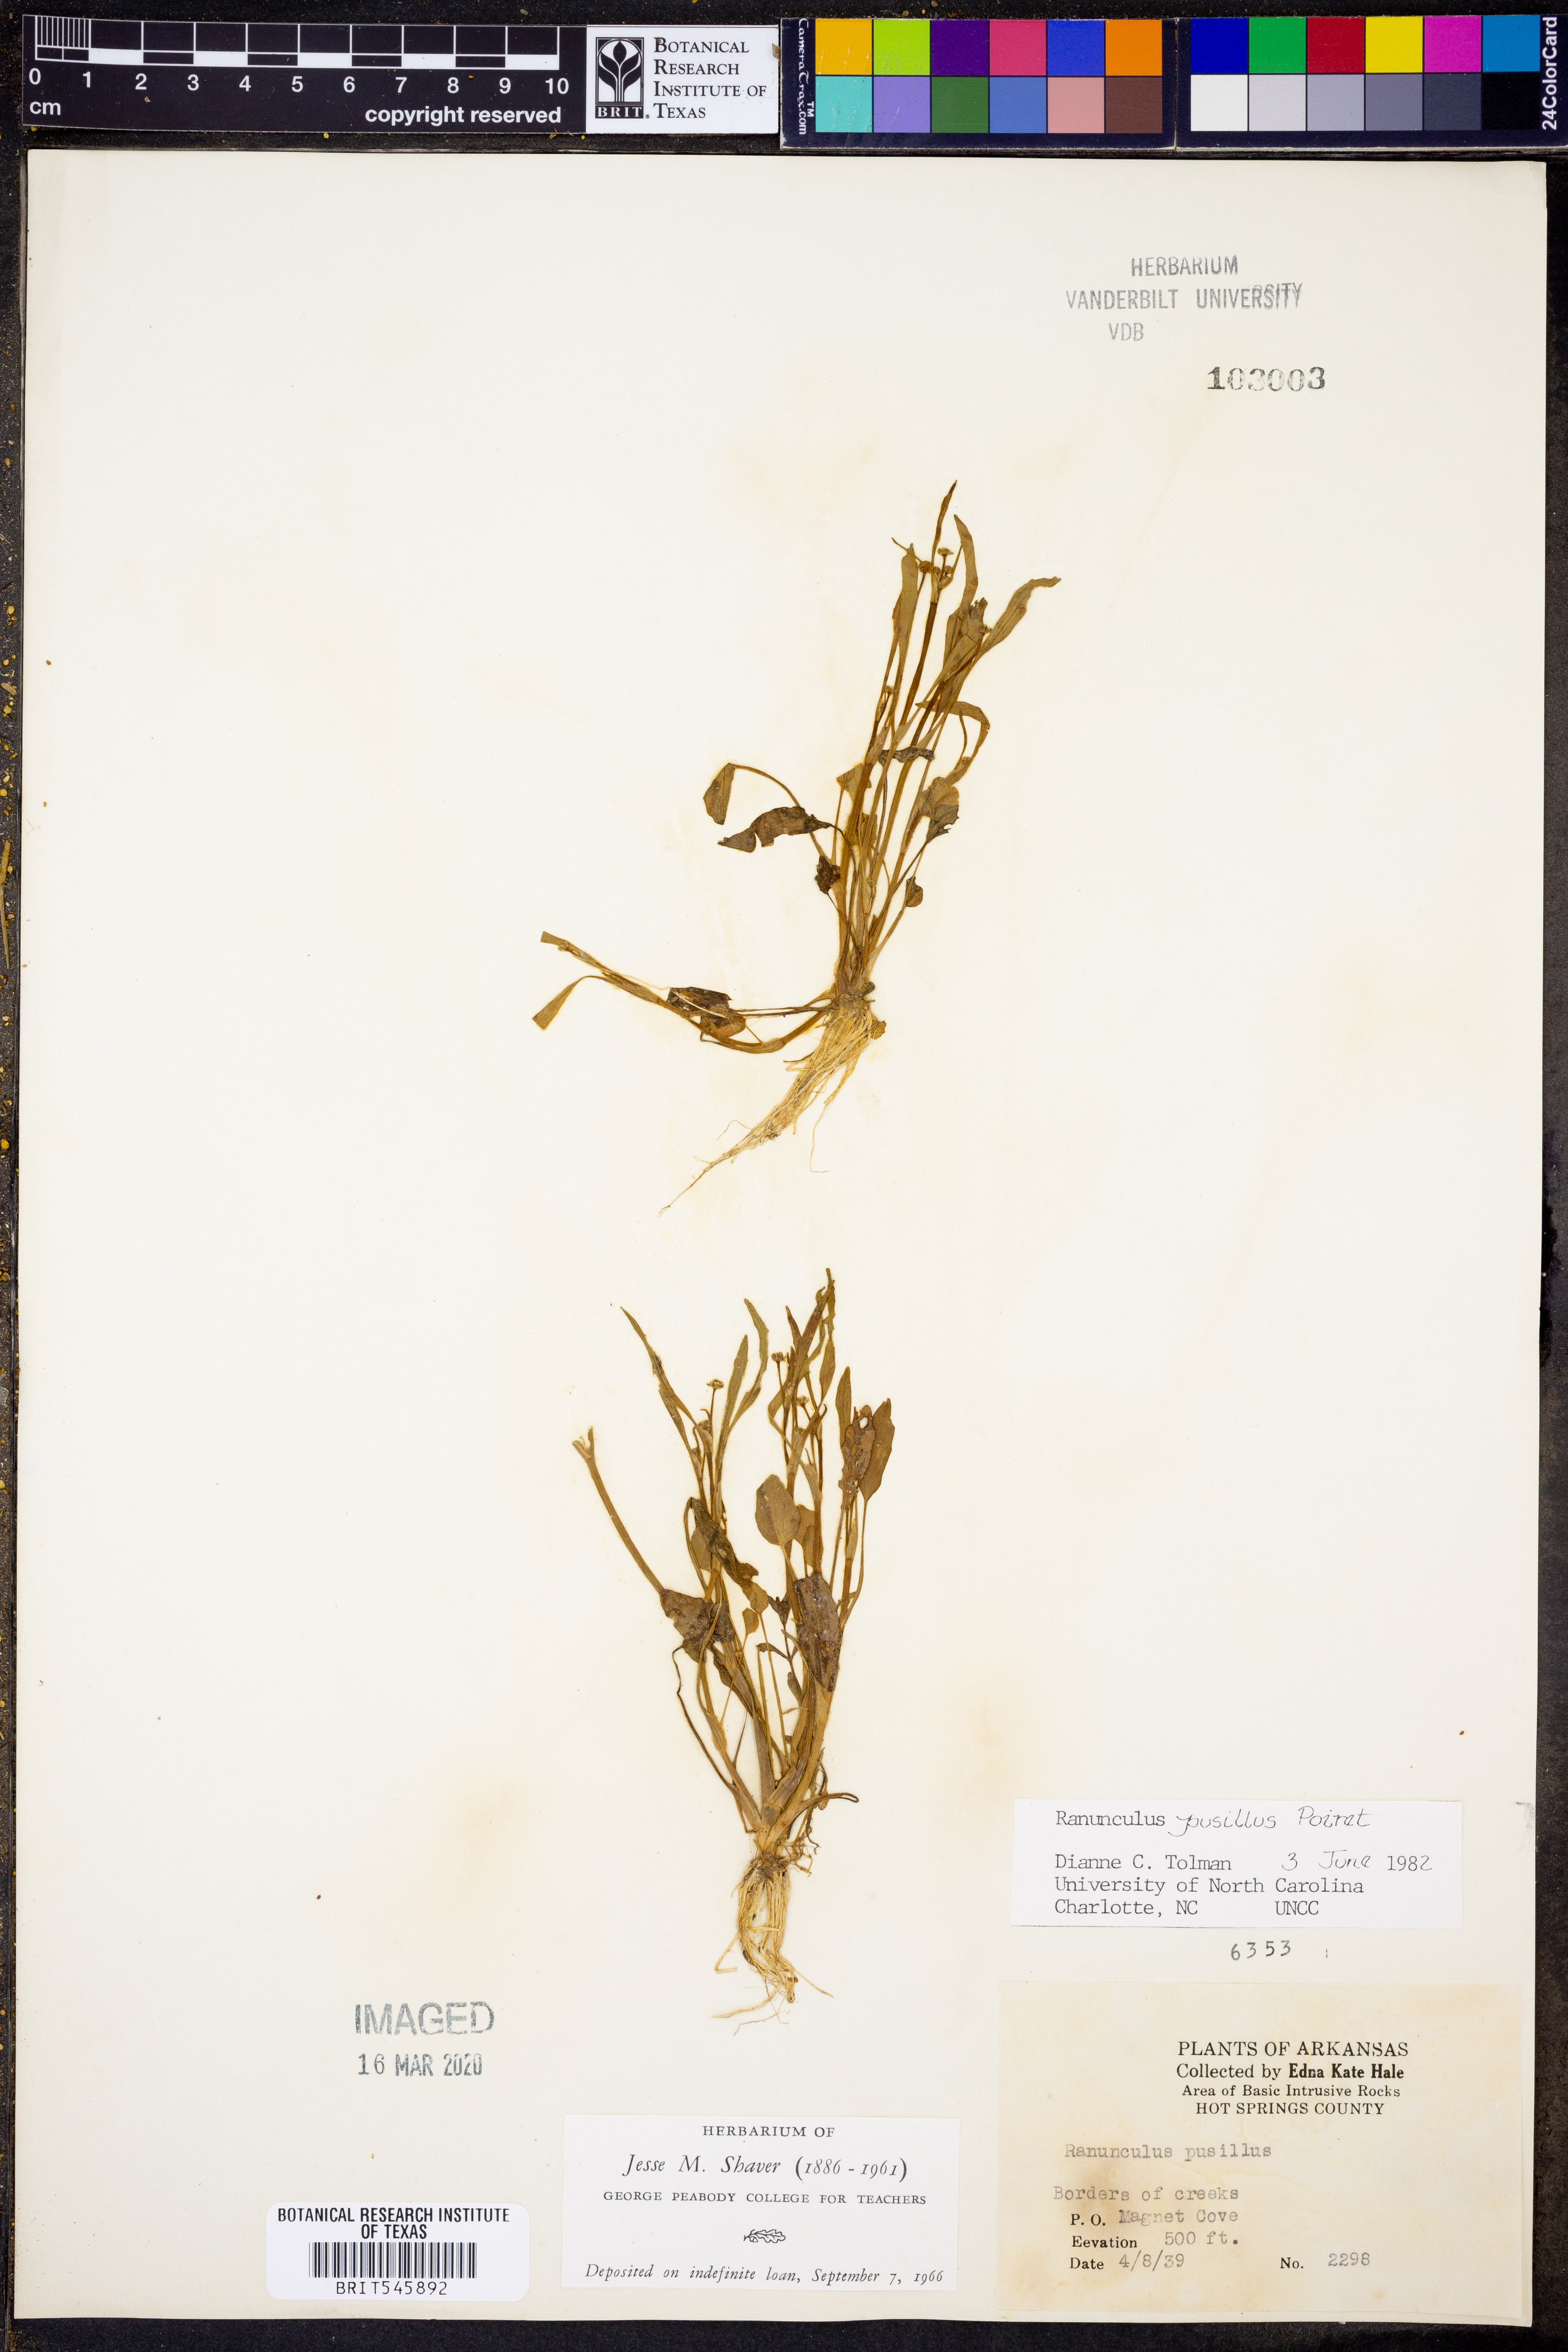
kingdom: Plantae
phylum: Tracheophyta
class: Magnoliopsida
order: Ranunculales
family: Ranunculaceae
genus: Ranunculus
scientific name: Ranunculus pusillus
